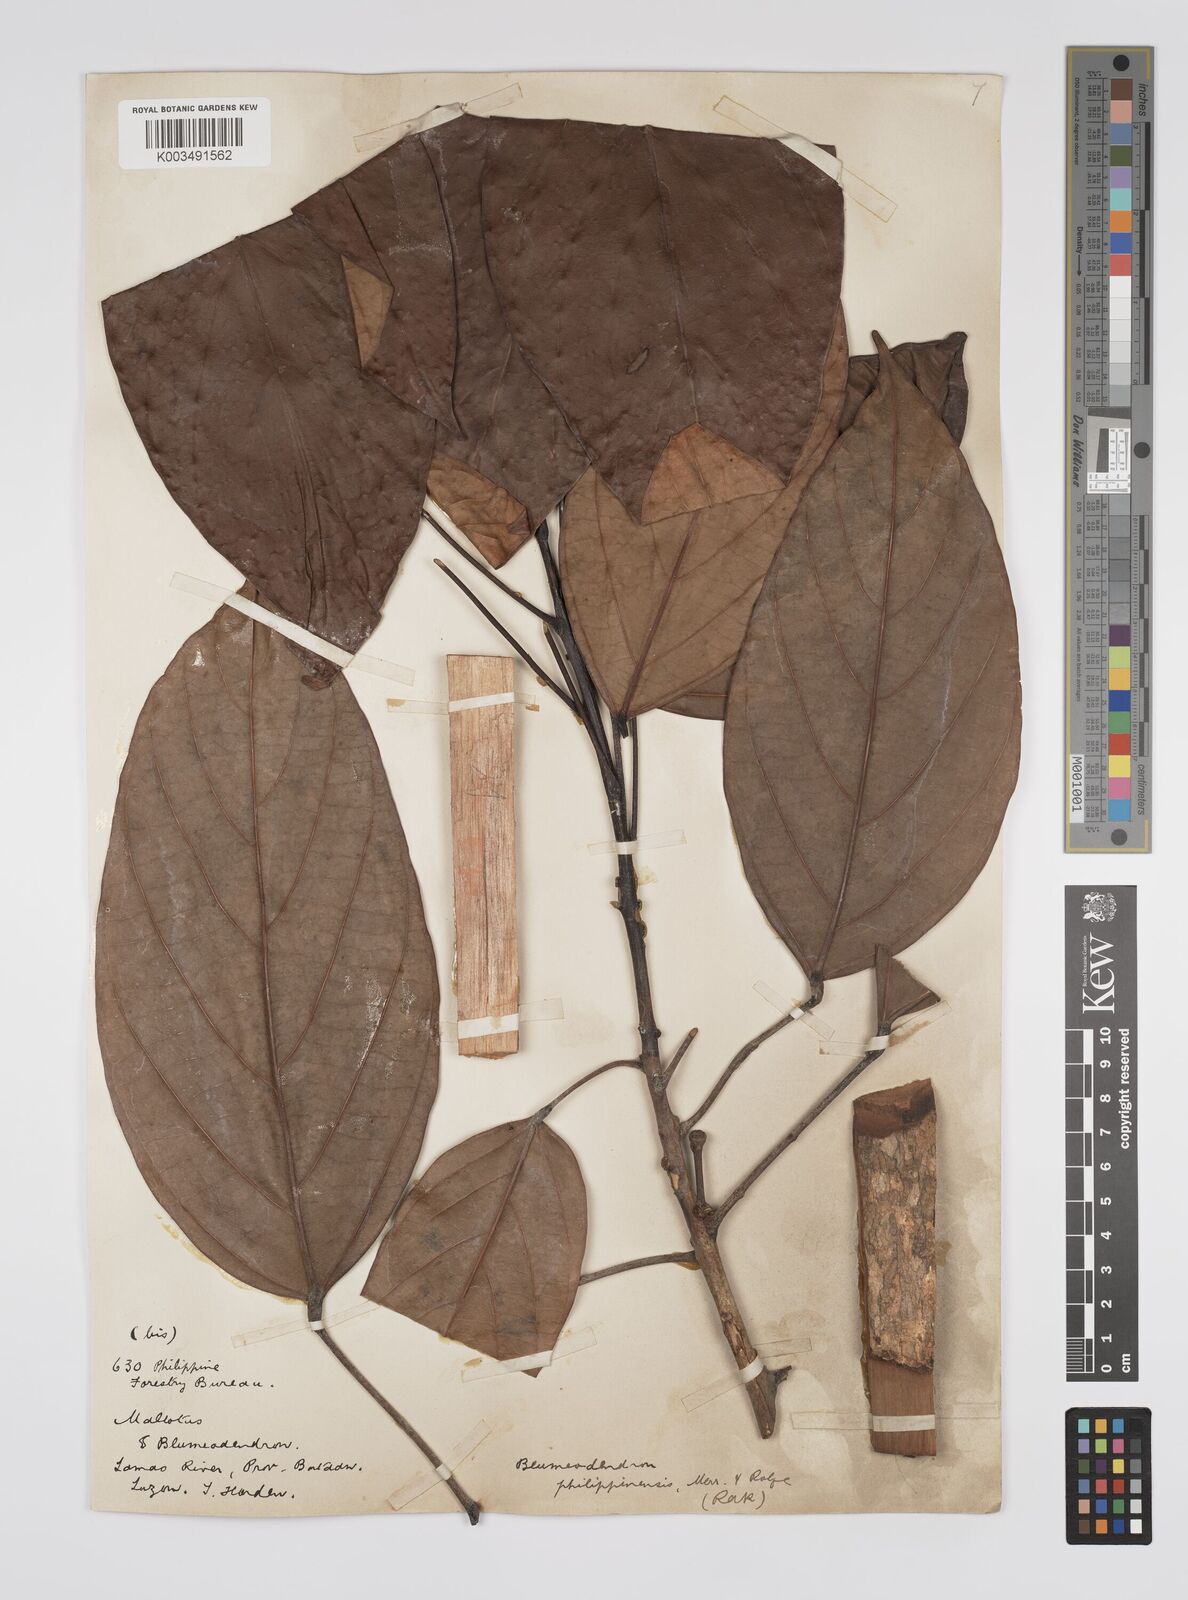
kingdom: Plantae
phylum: Tracheophyta
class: Magnoliopsida
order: Malpighiales
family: Euphorbiaceae
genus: Blumeodendron
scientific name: Blumeodendron philippinense
